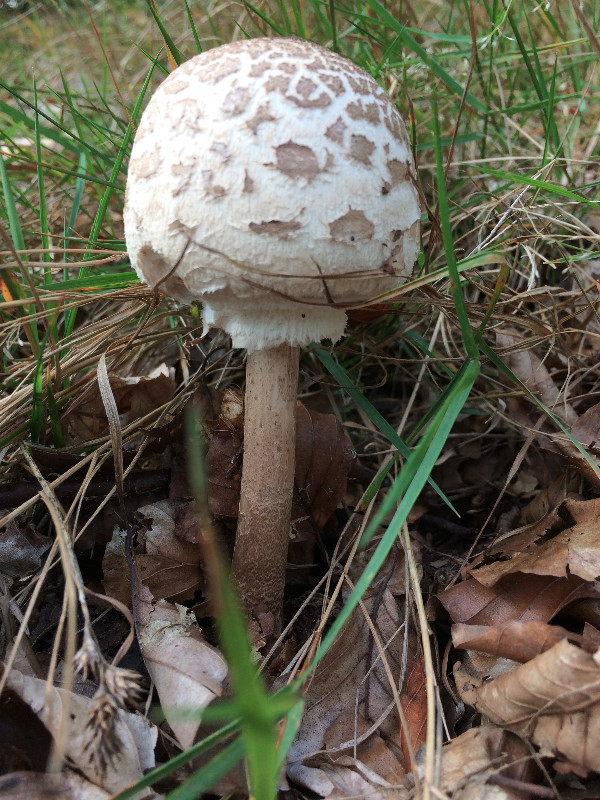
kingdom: Fungi
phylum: Basidiomycota
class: Agaricomycetes
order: Agaricales
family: Agaricaceae
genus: Macrolepiota
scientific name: Macrolepiota procera
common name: stor kæmpeparasolhat
